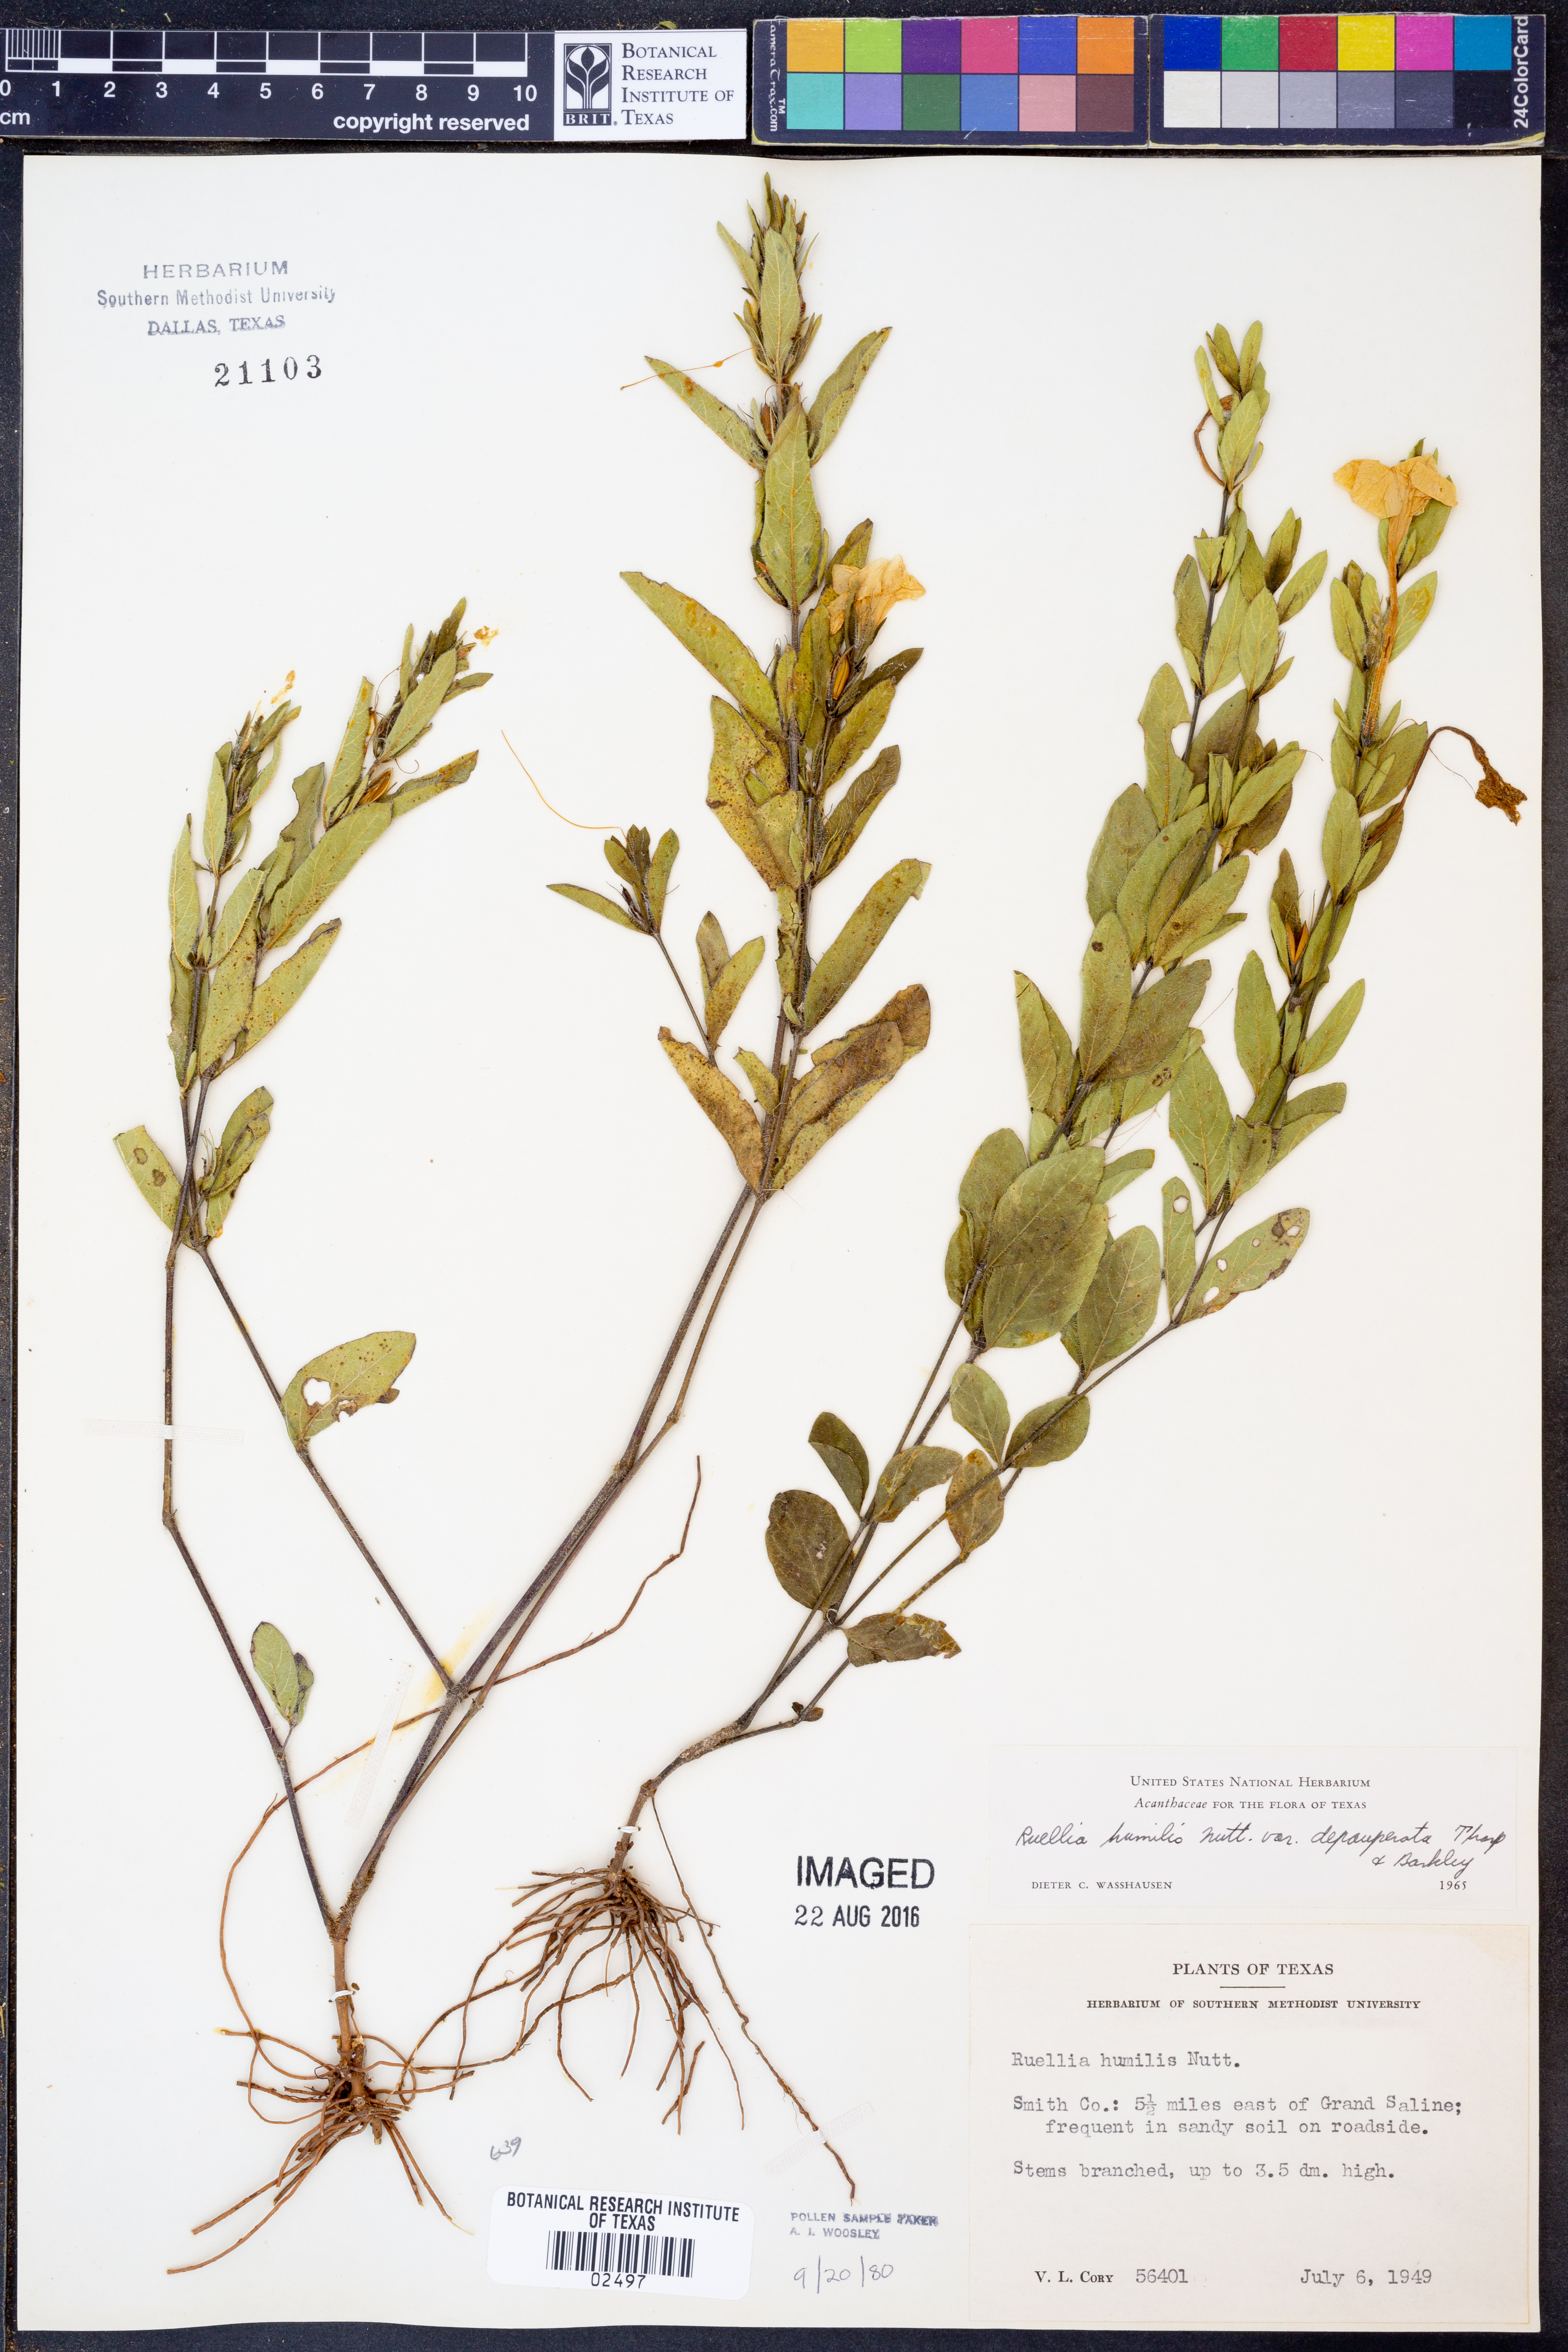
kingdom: Plantae
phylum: Tracheophyta
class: Magnoliopsida
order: Lamiales
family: Acanthaceae
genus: Ruellia
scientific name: Ruellia humilis
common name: Fringe-leaf ruellia
